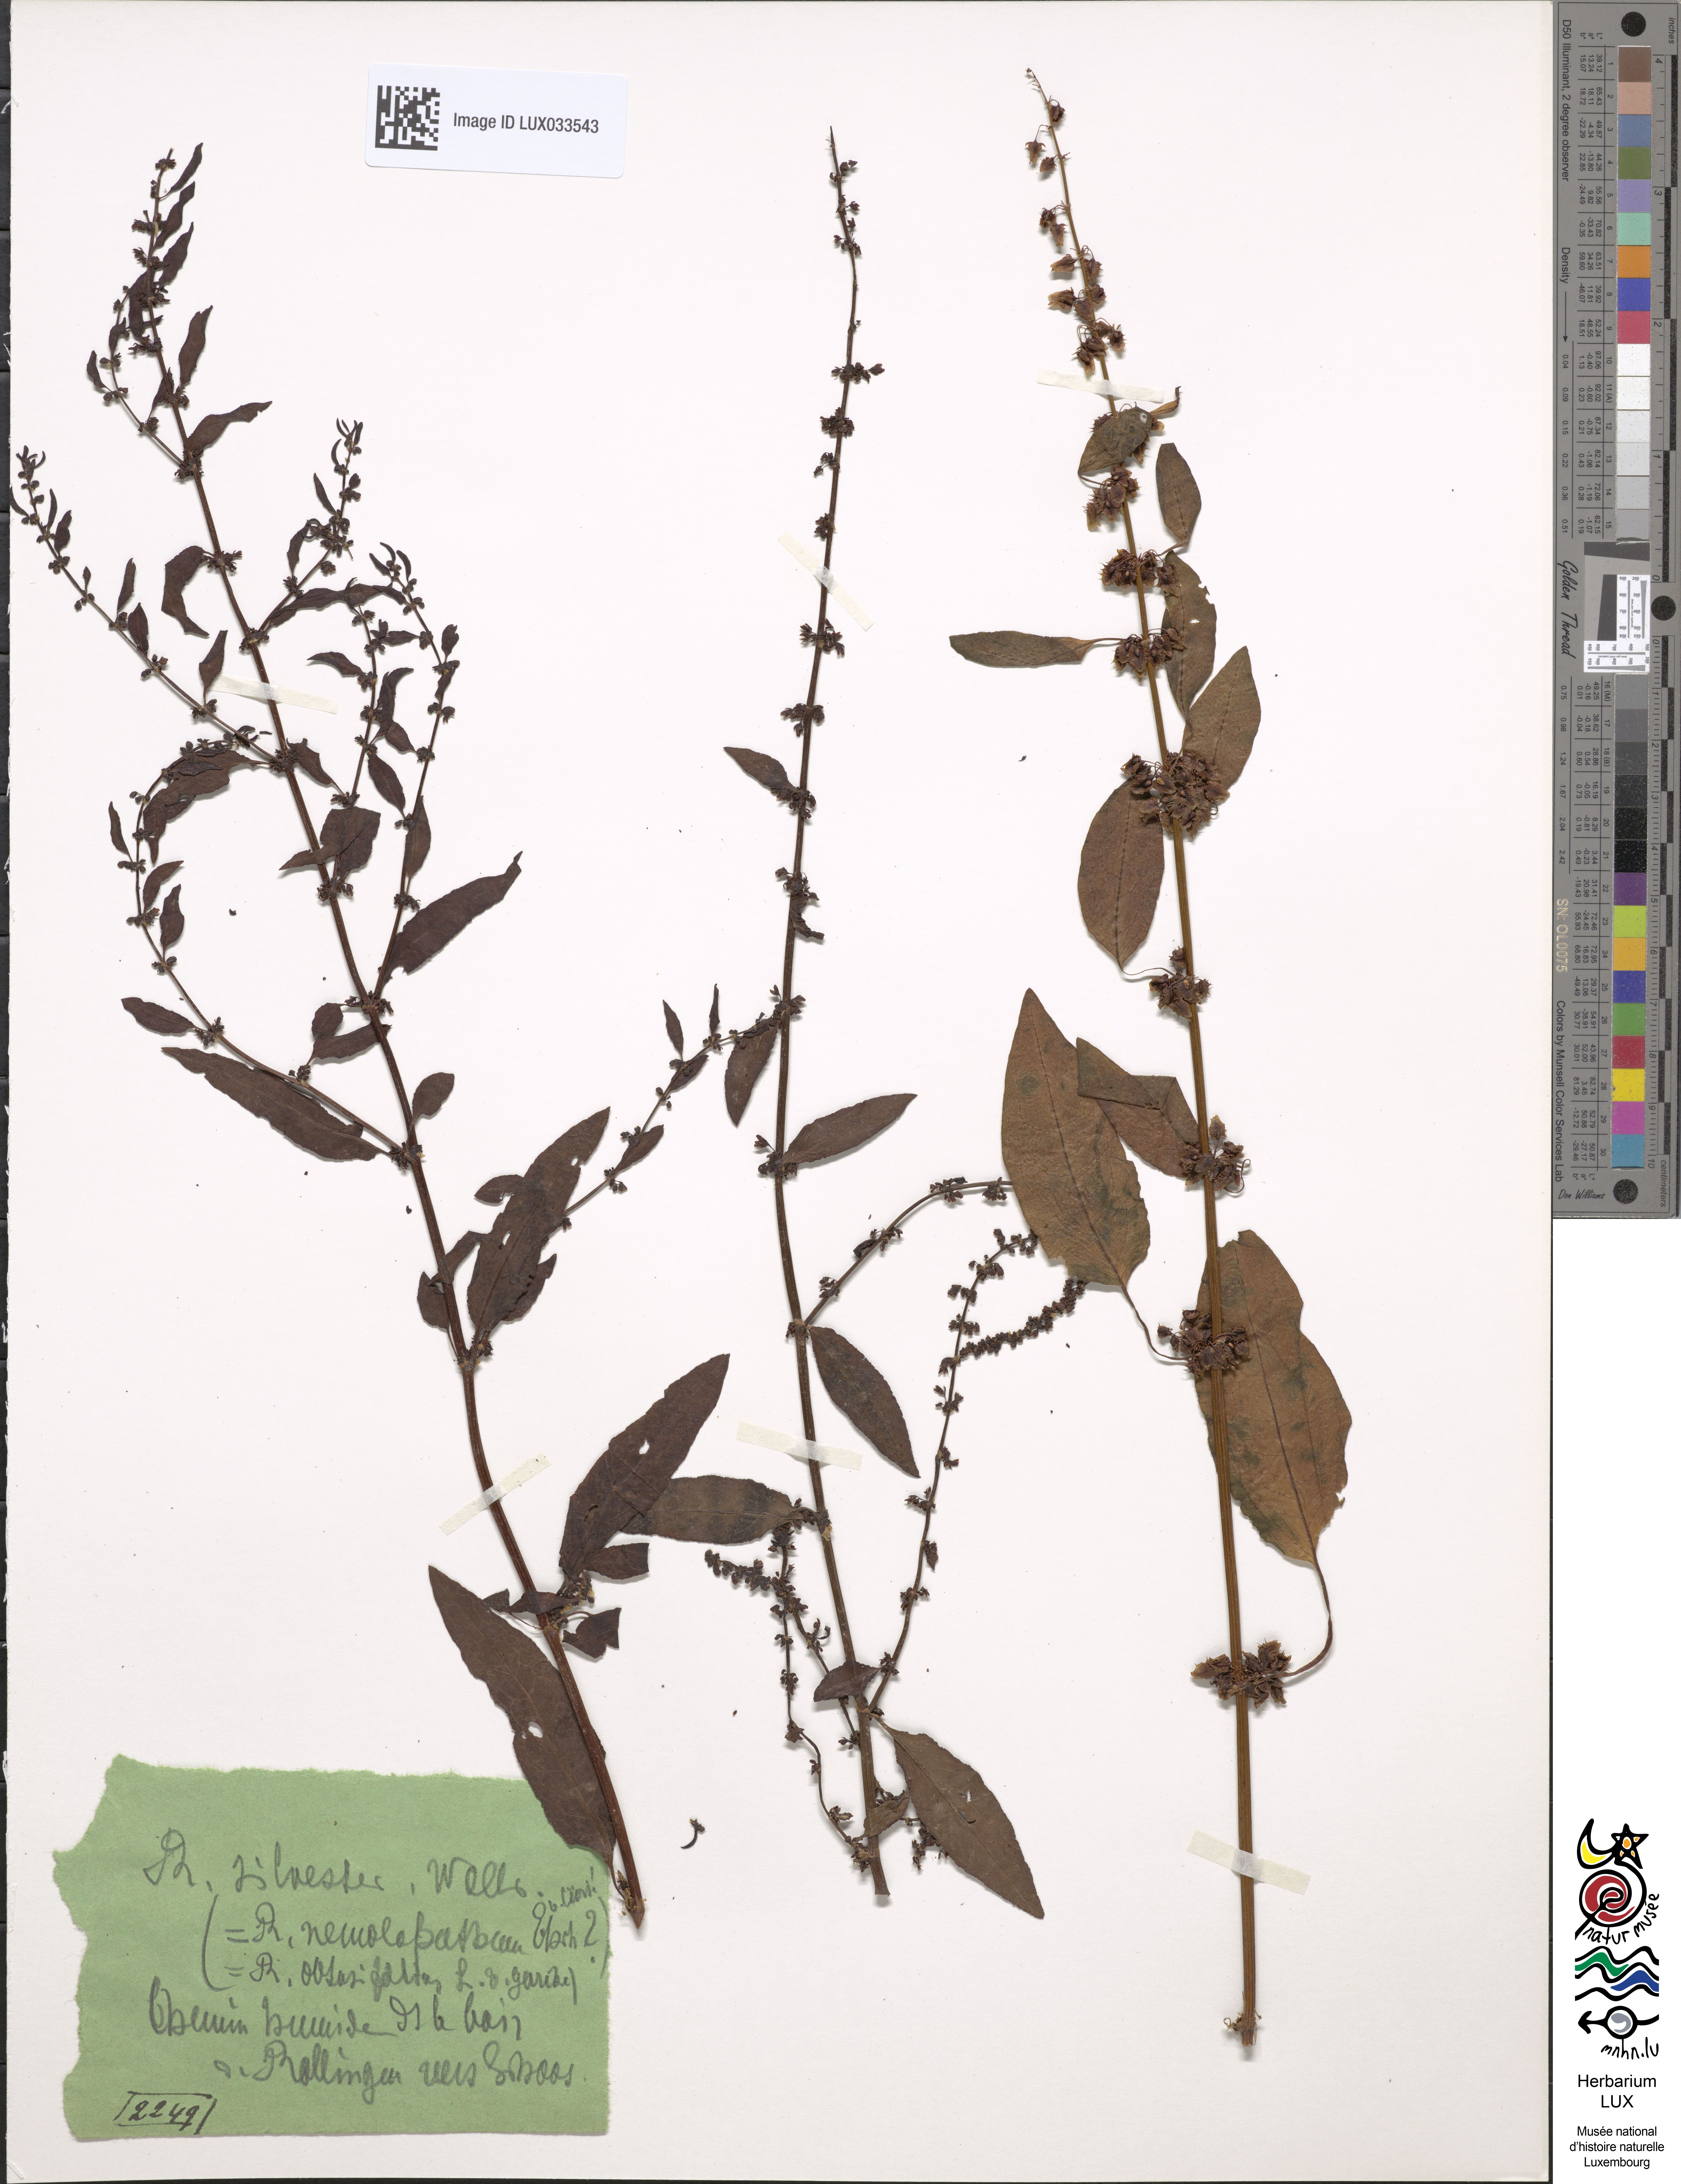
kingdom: Plantae
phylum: Tracheophyta
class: Magnoliopsida
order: Caryophyllales
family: Polygonaceae
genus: Rumex
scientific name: Rumex obtusifolius
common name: Bitter dock
